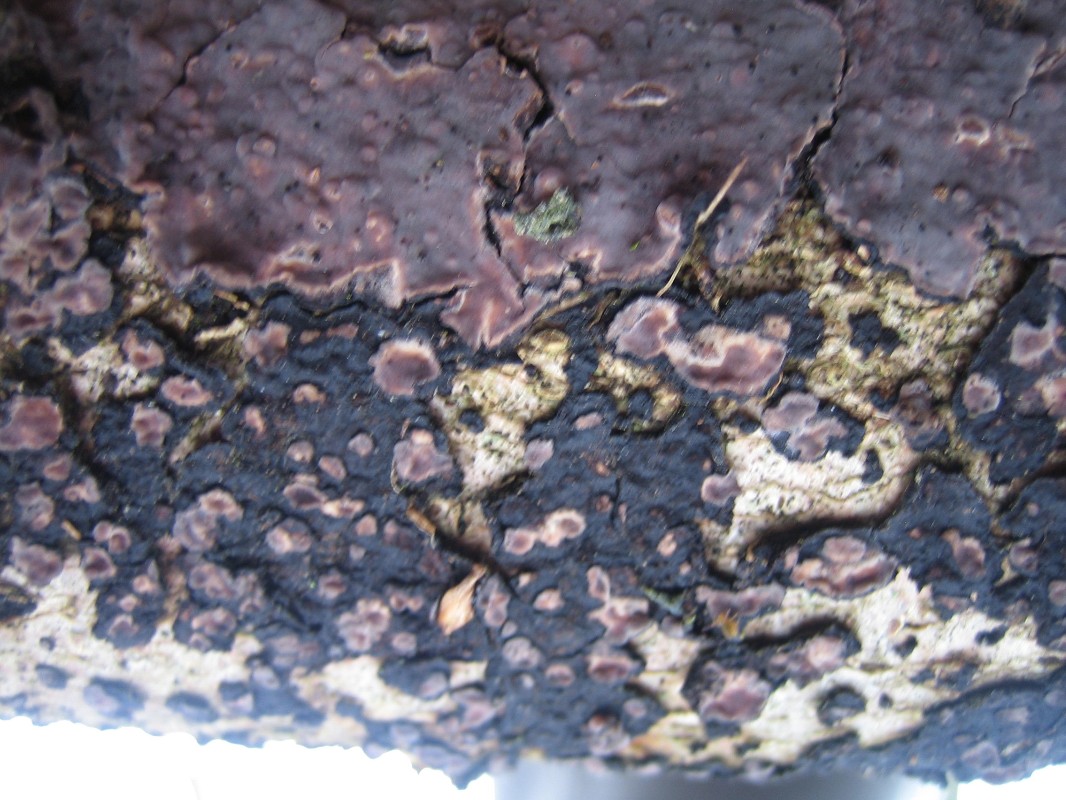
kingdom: Fungi
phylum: Basidiomycota
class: Agaricomycetes
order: Russulales
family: Peniophoraceae
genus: Peniophora
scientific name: Peniophora quercina
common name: ege-voksskind
